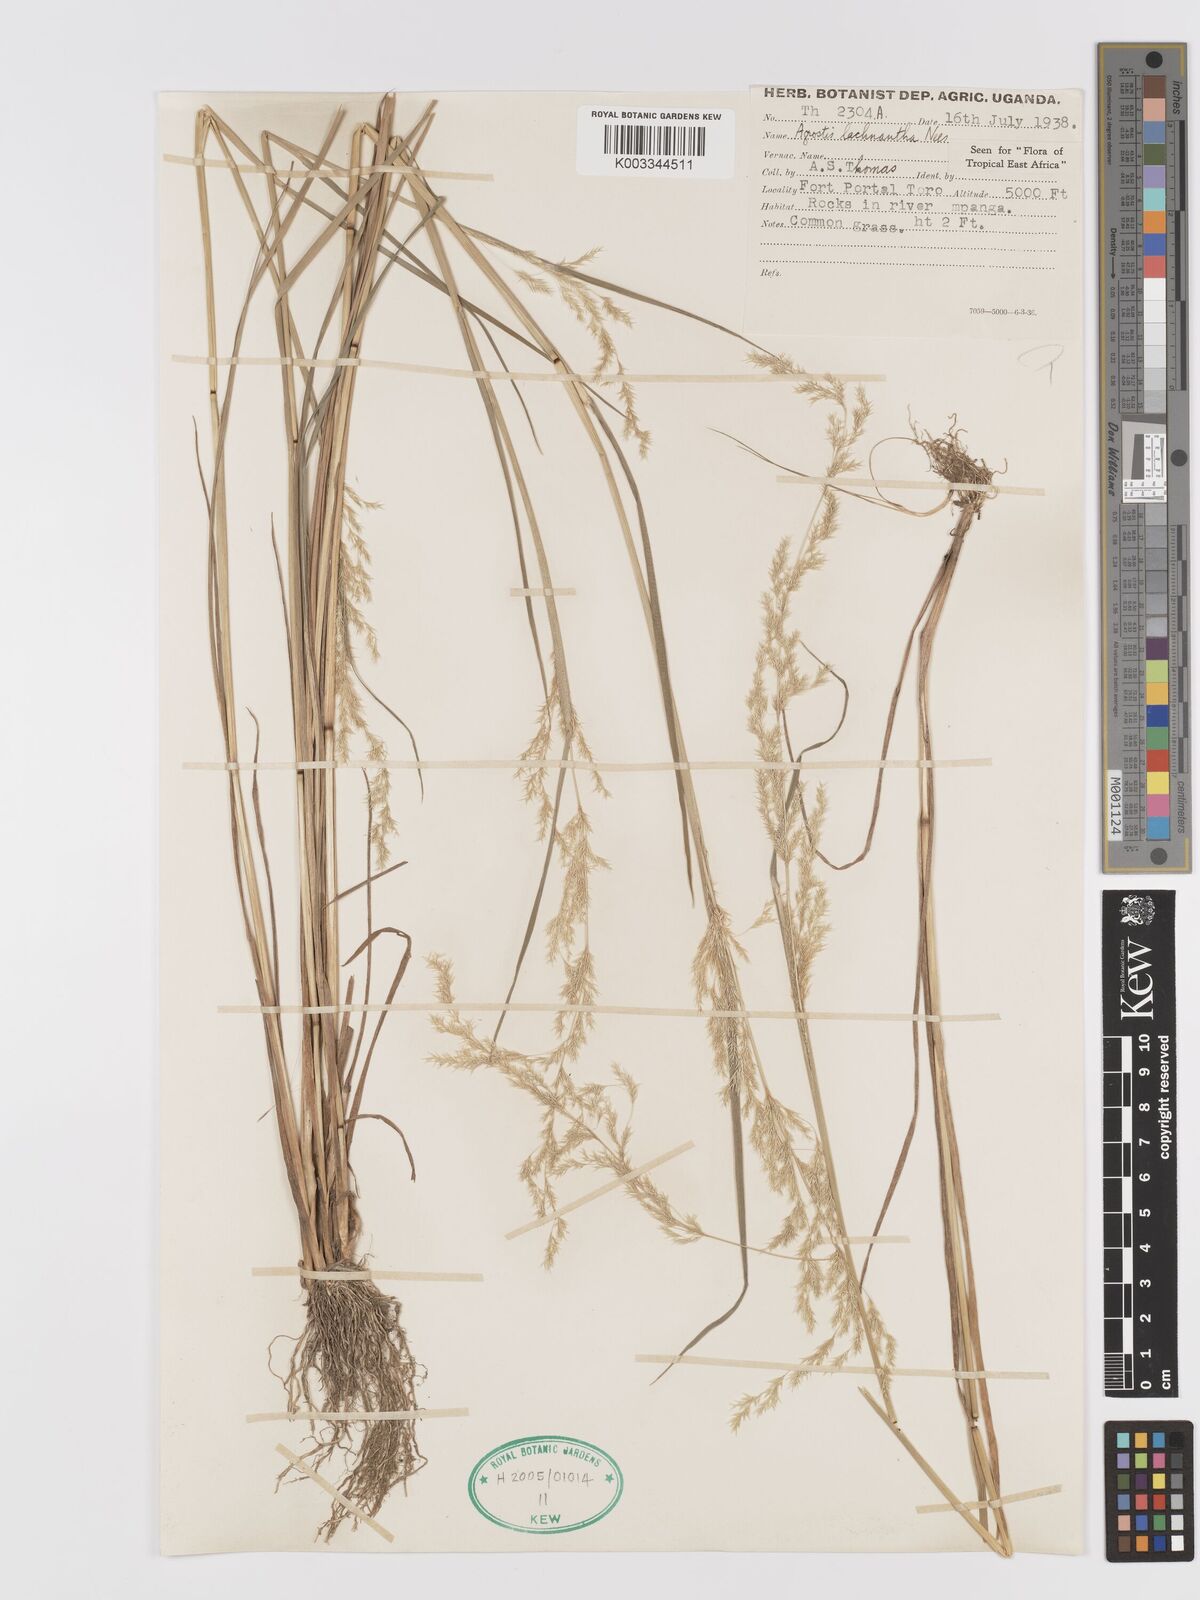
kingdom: Plantae
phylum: Tracheophyta
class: Liliopsida
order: Poales
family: Poaceae
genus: Lachnagrostis
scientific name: Lachnagrostis lachnantha
